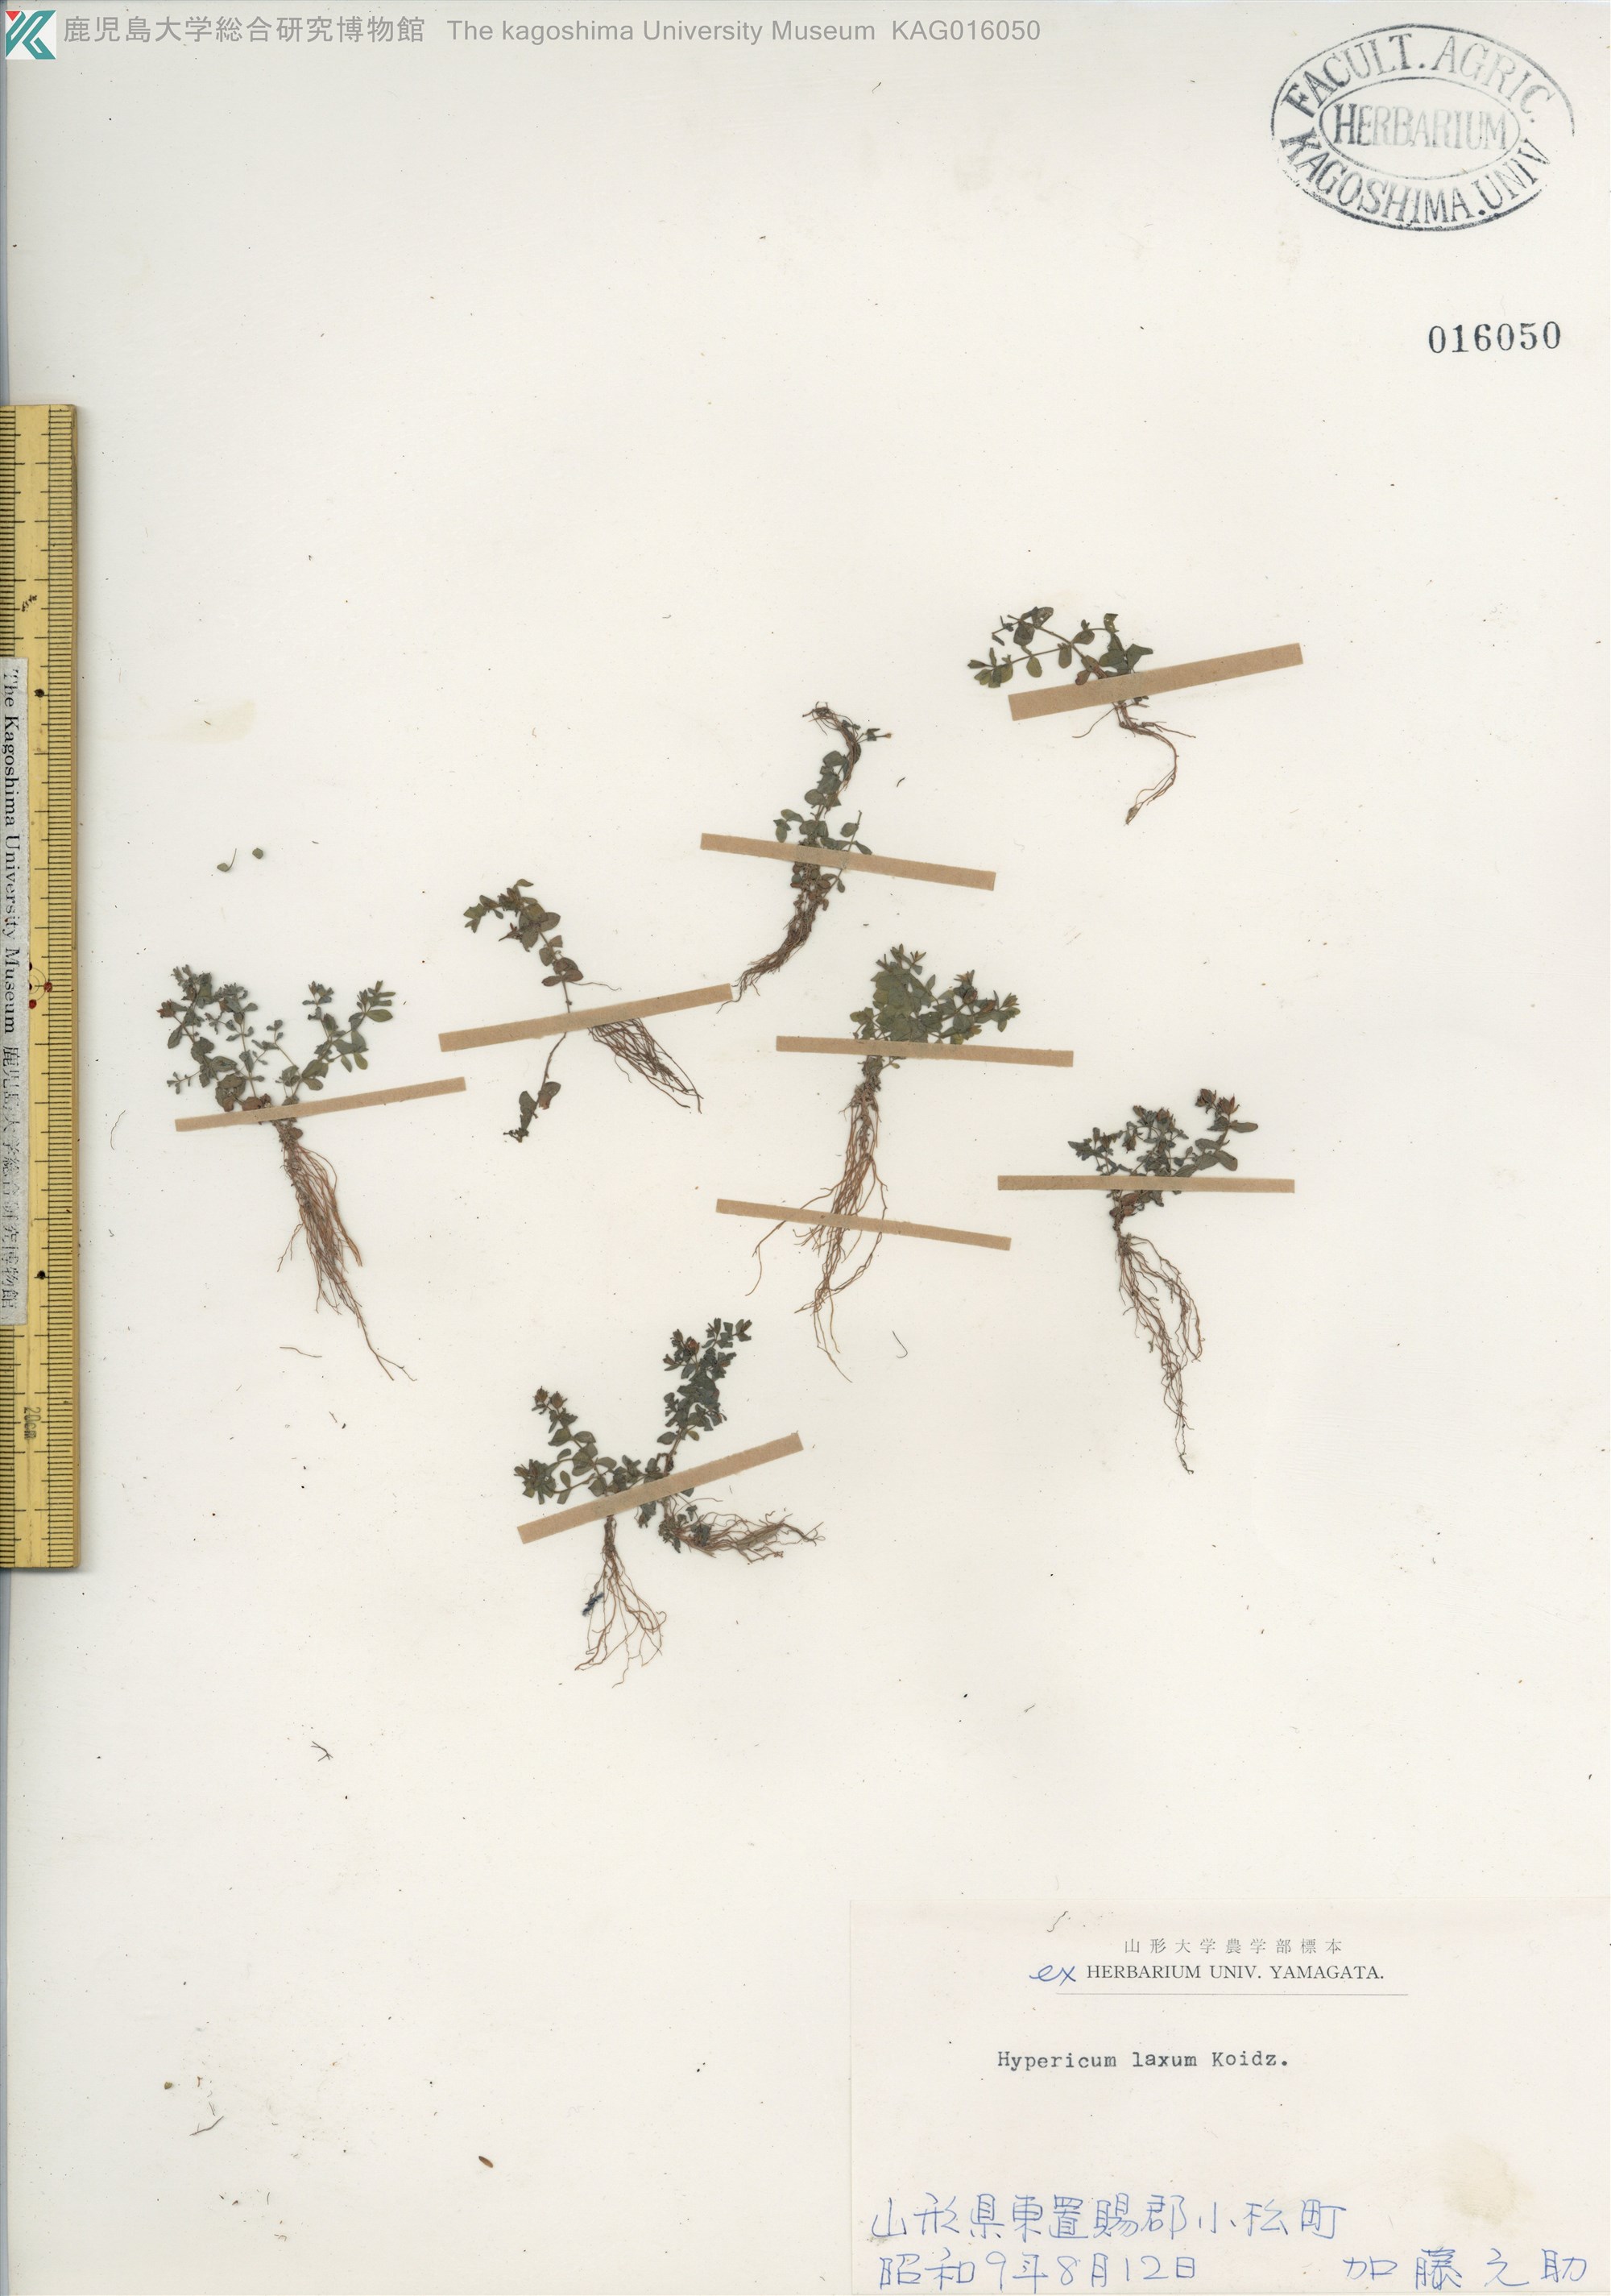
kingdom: Plantae
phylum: Tracheophyta
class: Magnoliopsida
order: Malpighiales
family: Hypericaceae
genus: Hypericum
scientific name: Hypericum japonicum
